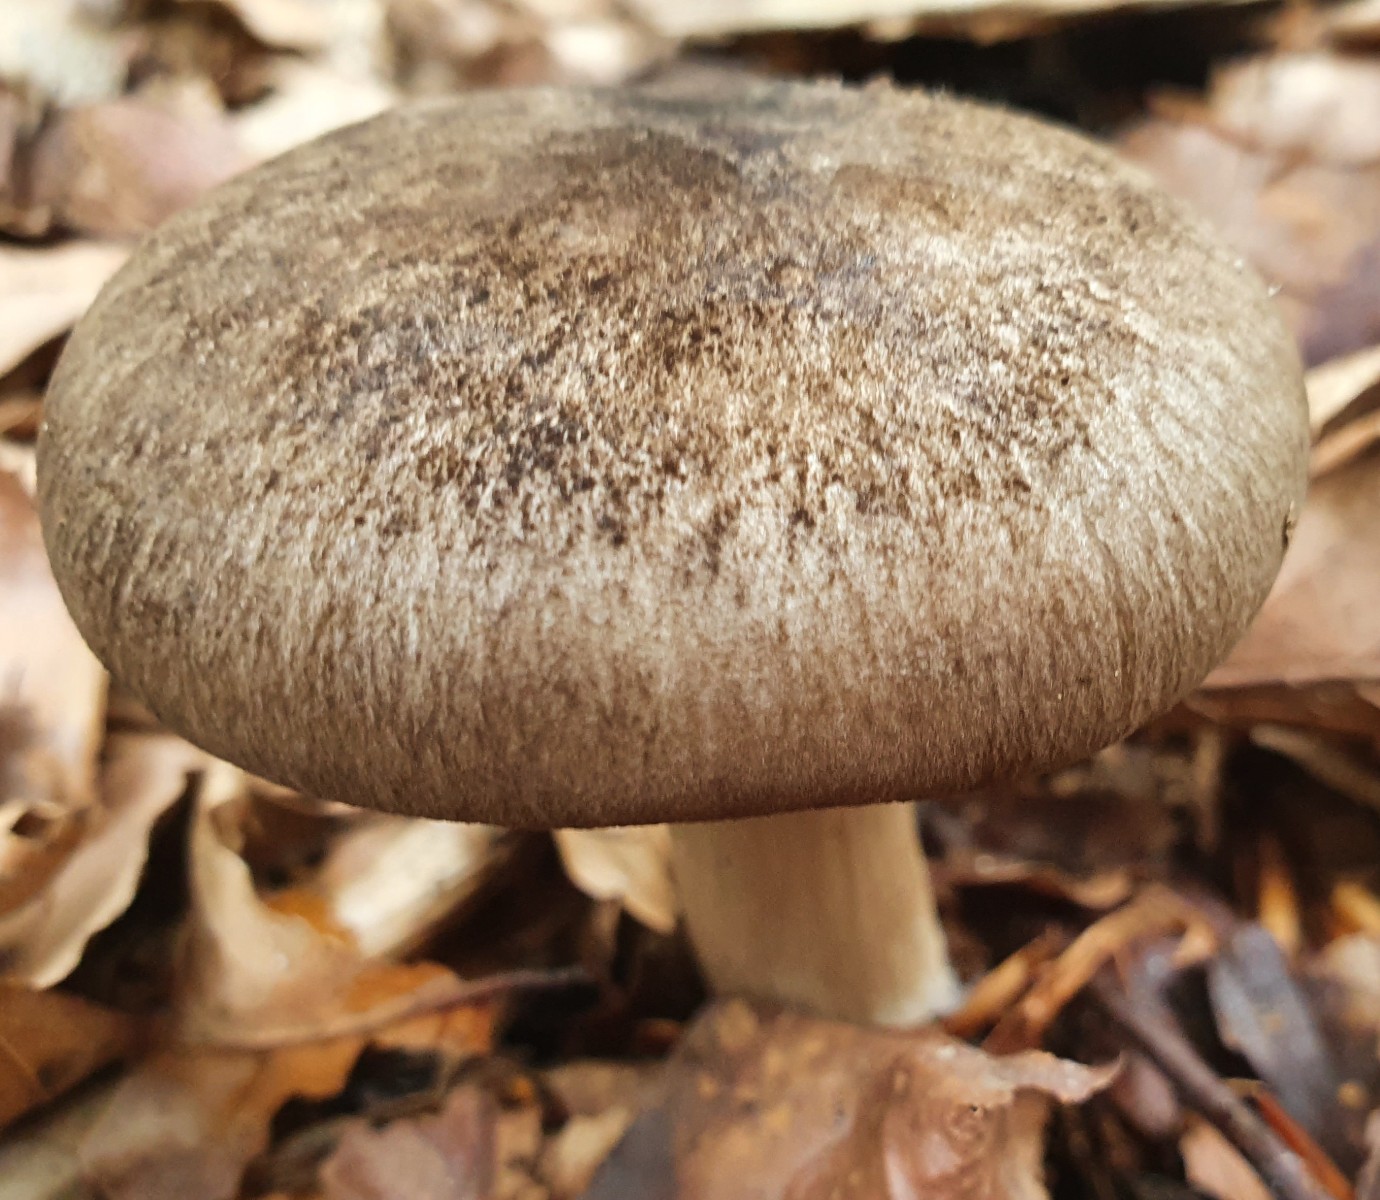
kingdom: Fungi
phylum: Basidiomycota
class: Agaricomycetes
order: Agaricales
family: Tricholomataceae
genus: Megacollybia
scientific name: Megacollybia platyphylla
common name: bredbladet væbnerhat
